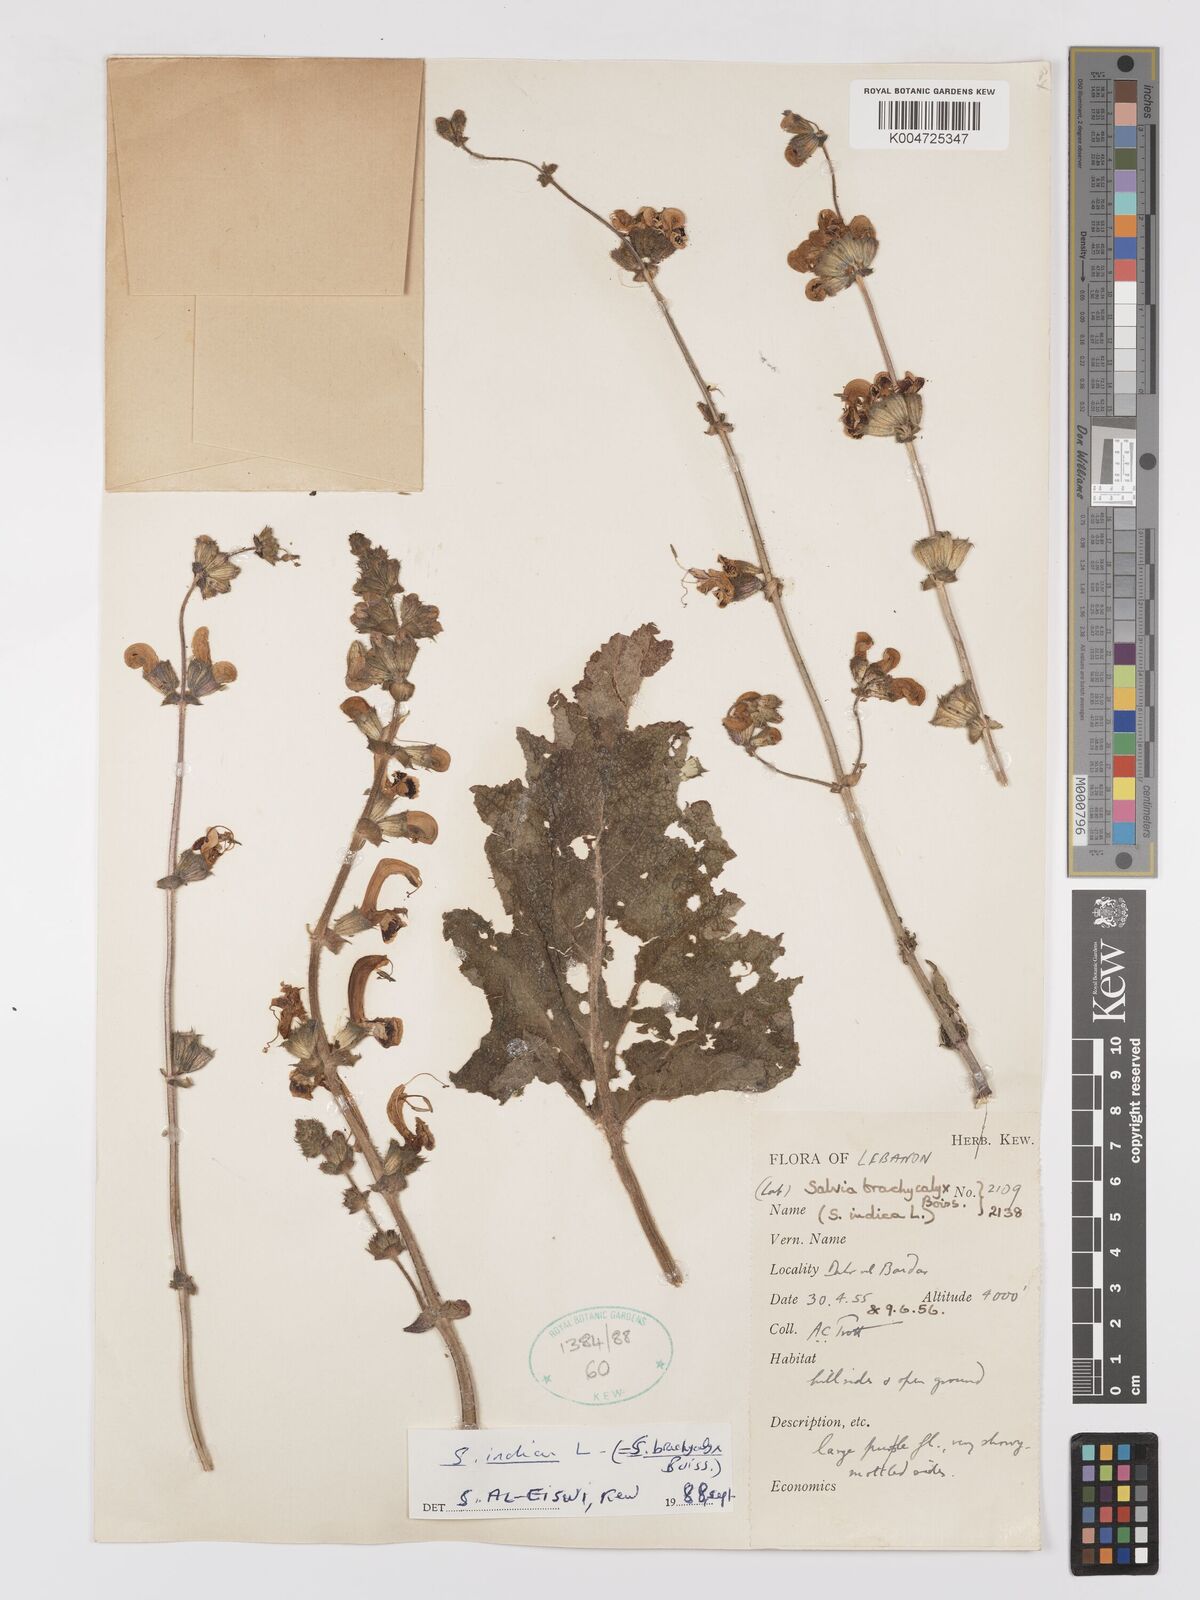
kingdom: Plantae
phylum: Tracheophyta
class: Magnoliopsida
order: Lamiales
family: Lamiaceae
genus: Salvia
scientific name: Salvia indica
